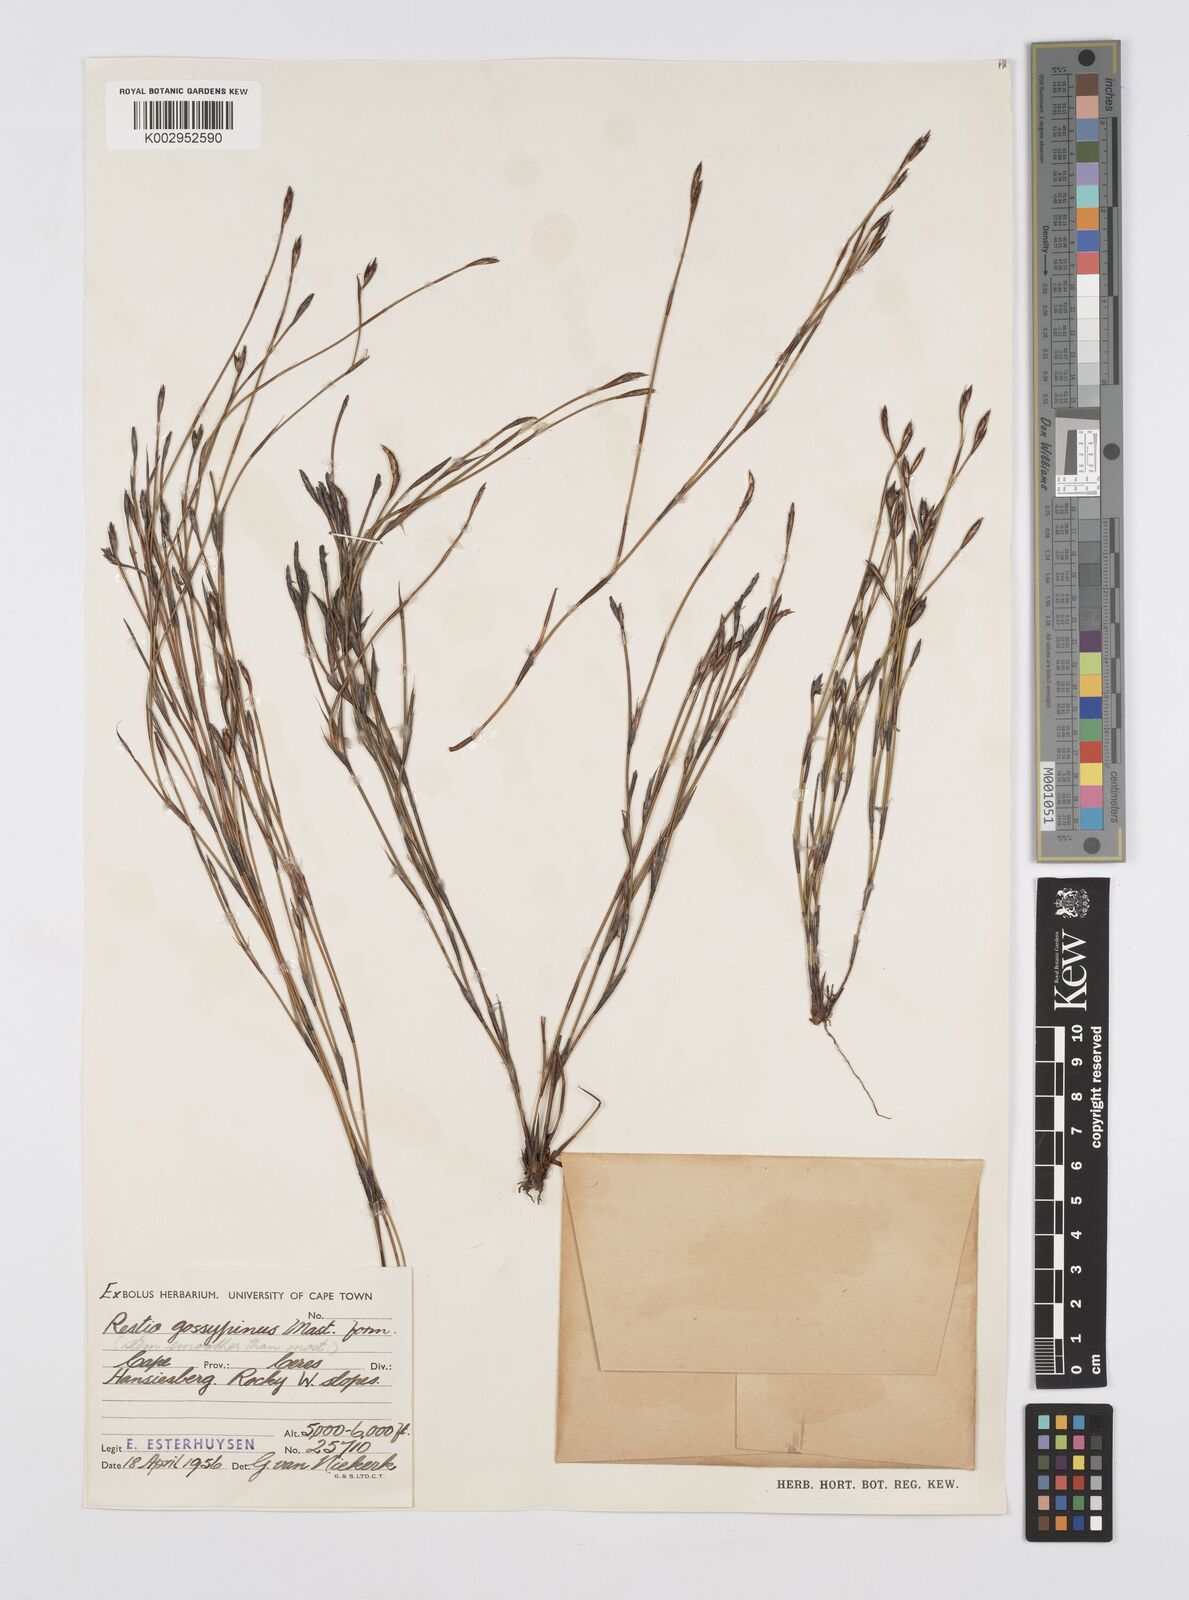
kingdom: Plantae
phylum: Tracheophyta
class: Liliopsida
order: Poales
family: Restionaceae
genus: Restio
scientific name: Restio gossypinus
